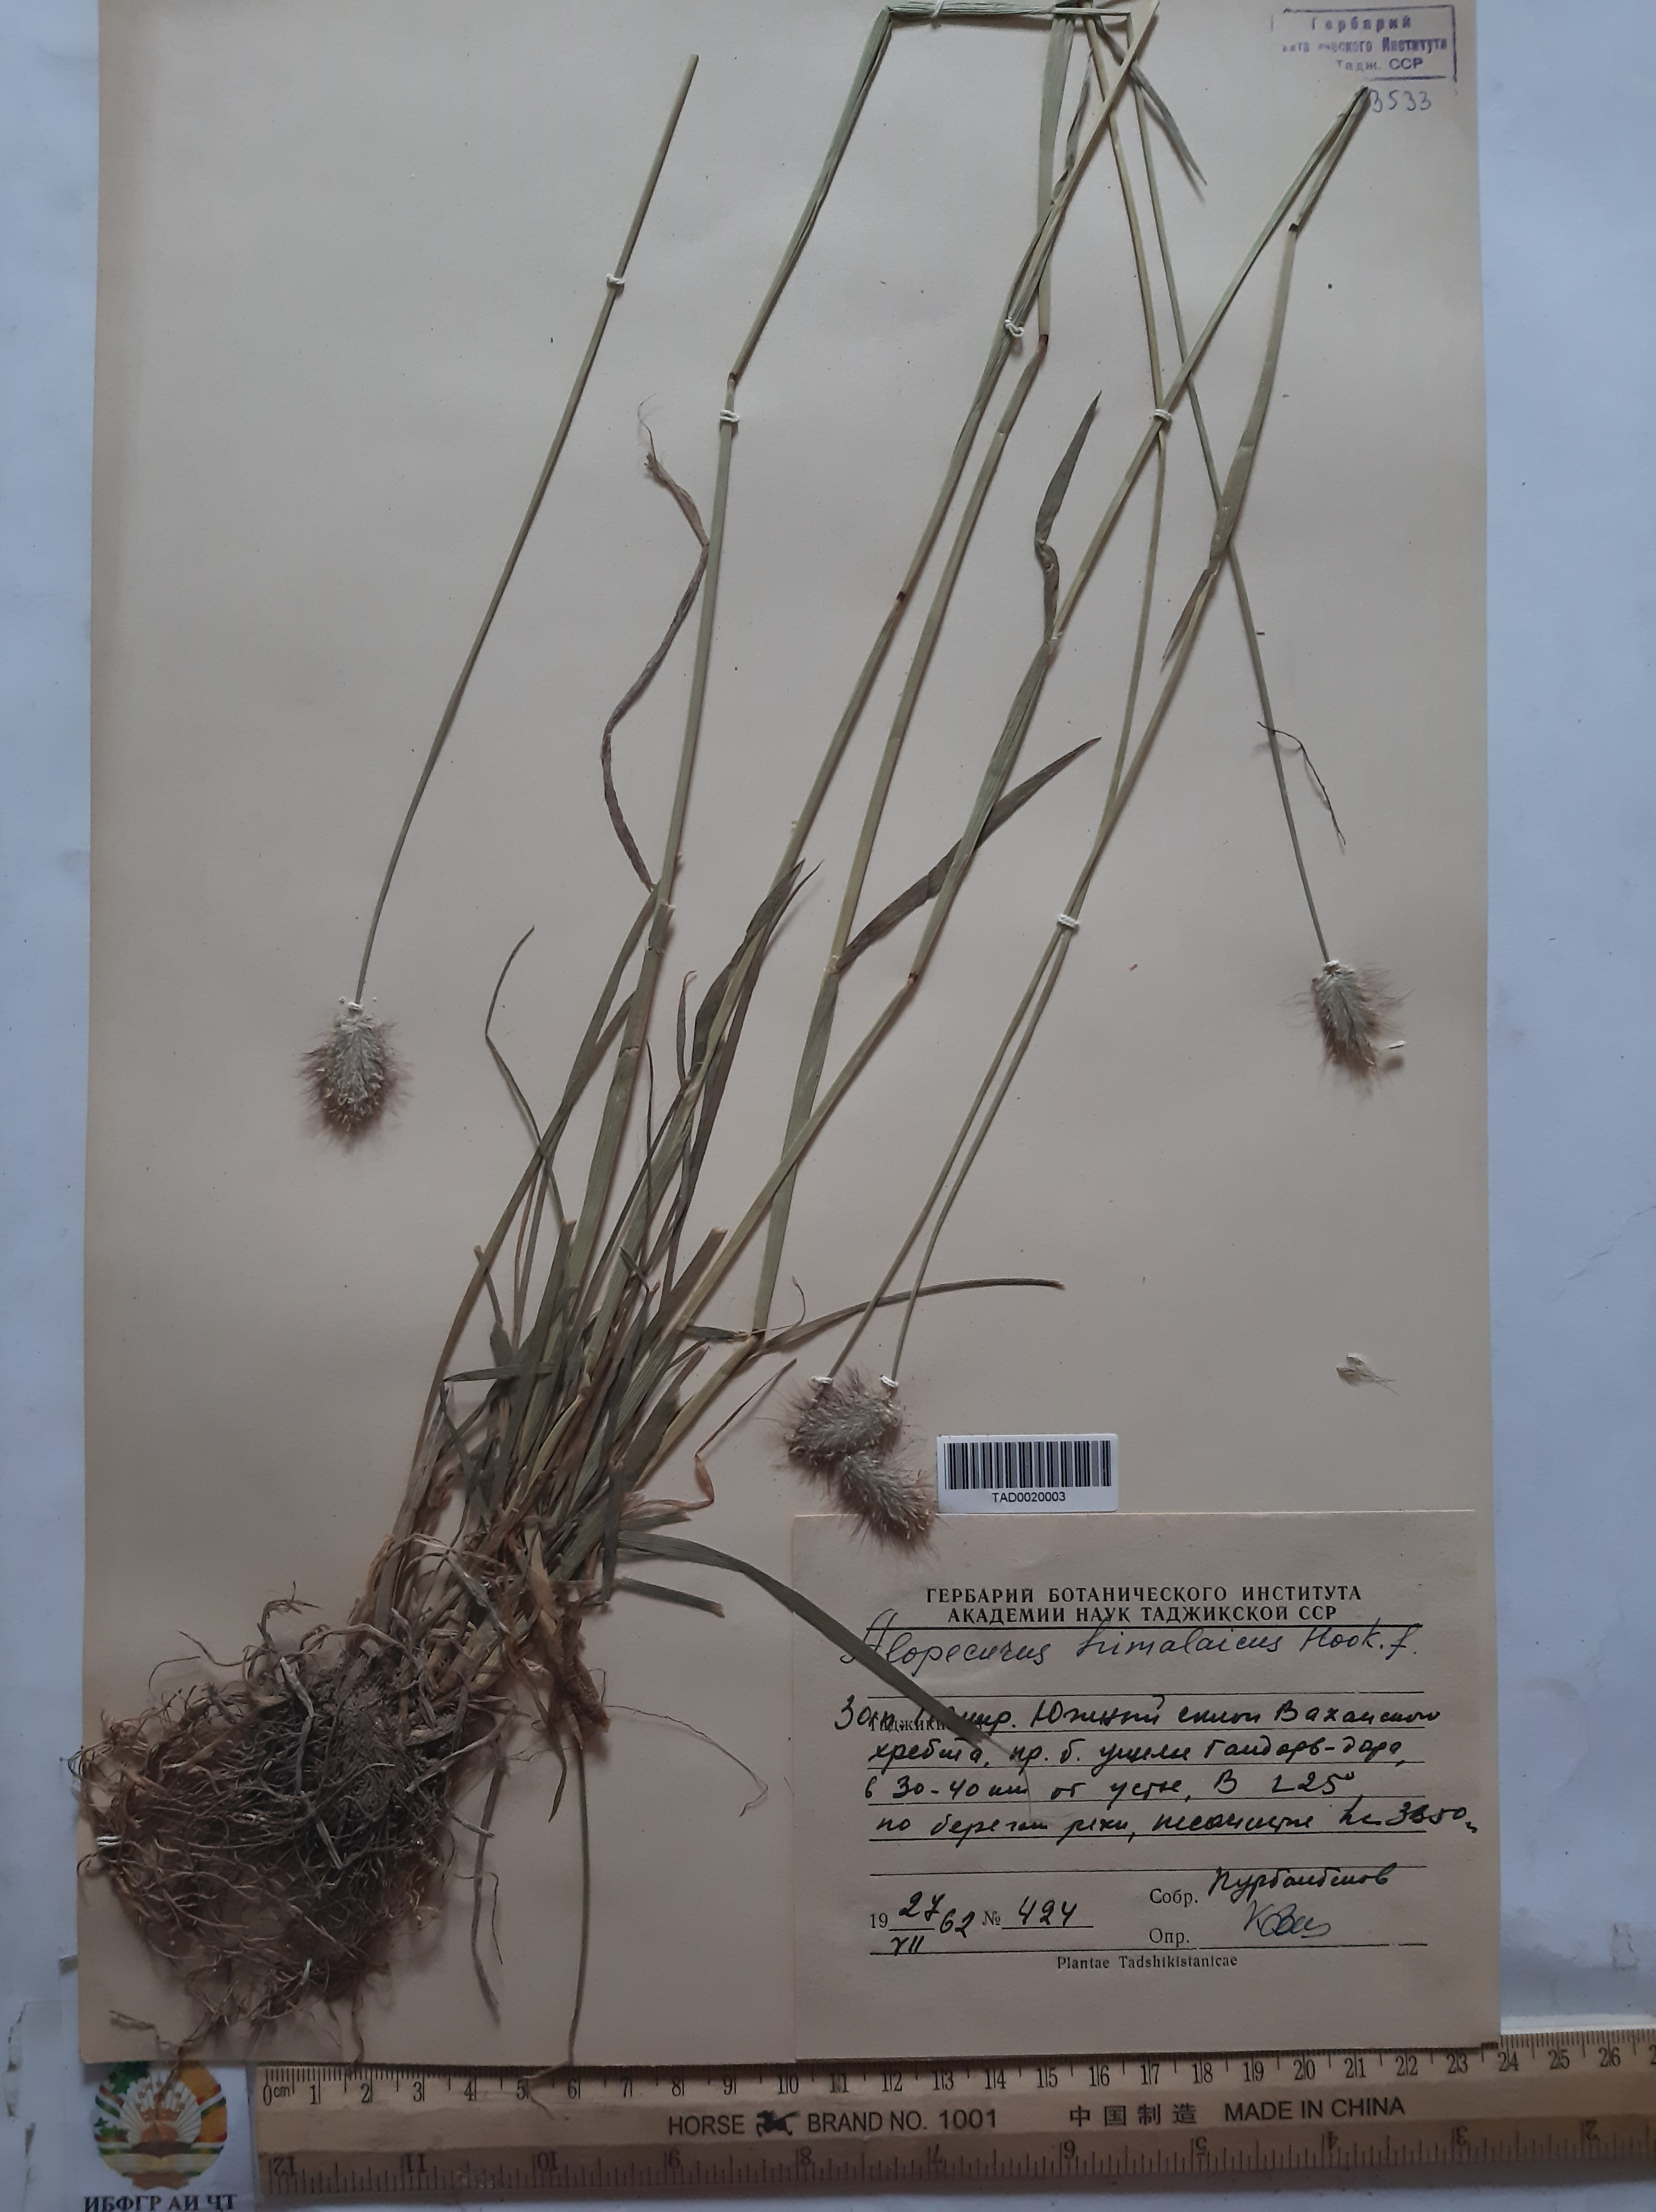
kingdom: Plantae
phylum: Tracheophyta
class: Liliopsida
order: Poales
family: Poaceae
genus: Alopecurus
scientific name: Alopecurus himalaicus
